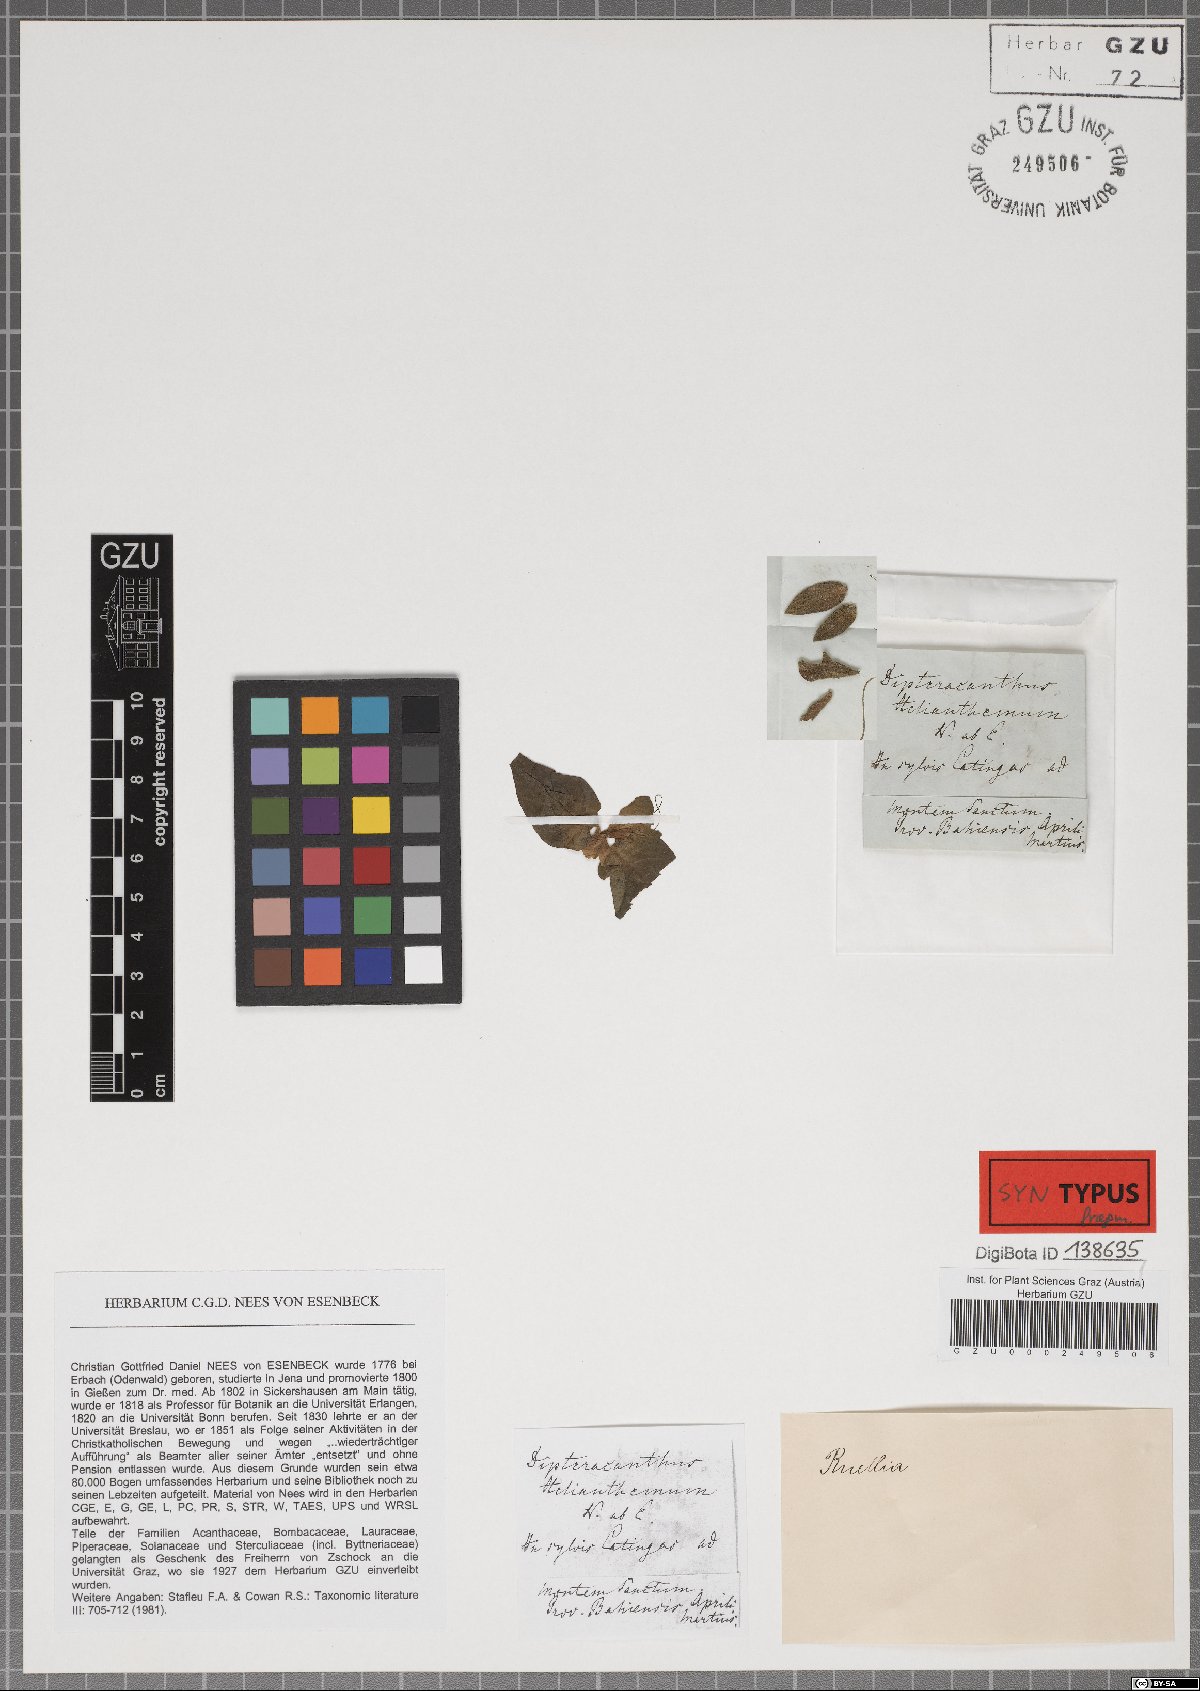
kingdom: Plantae
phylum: Tracheophyta
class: Magnoliopsida
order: Lamiales
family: Acanthaceae
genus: Ruellia
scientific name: Ruellia helianthema
